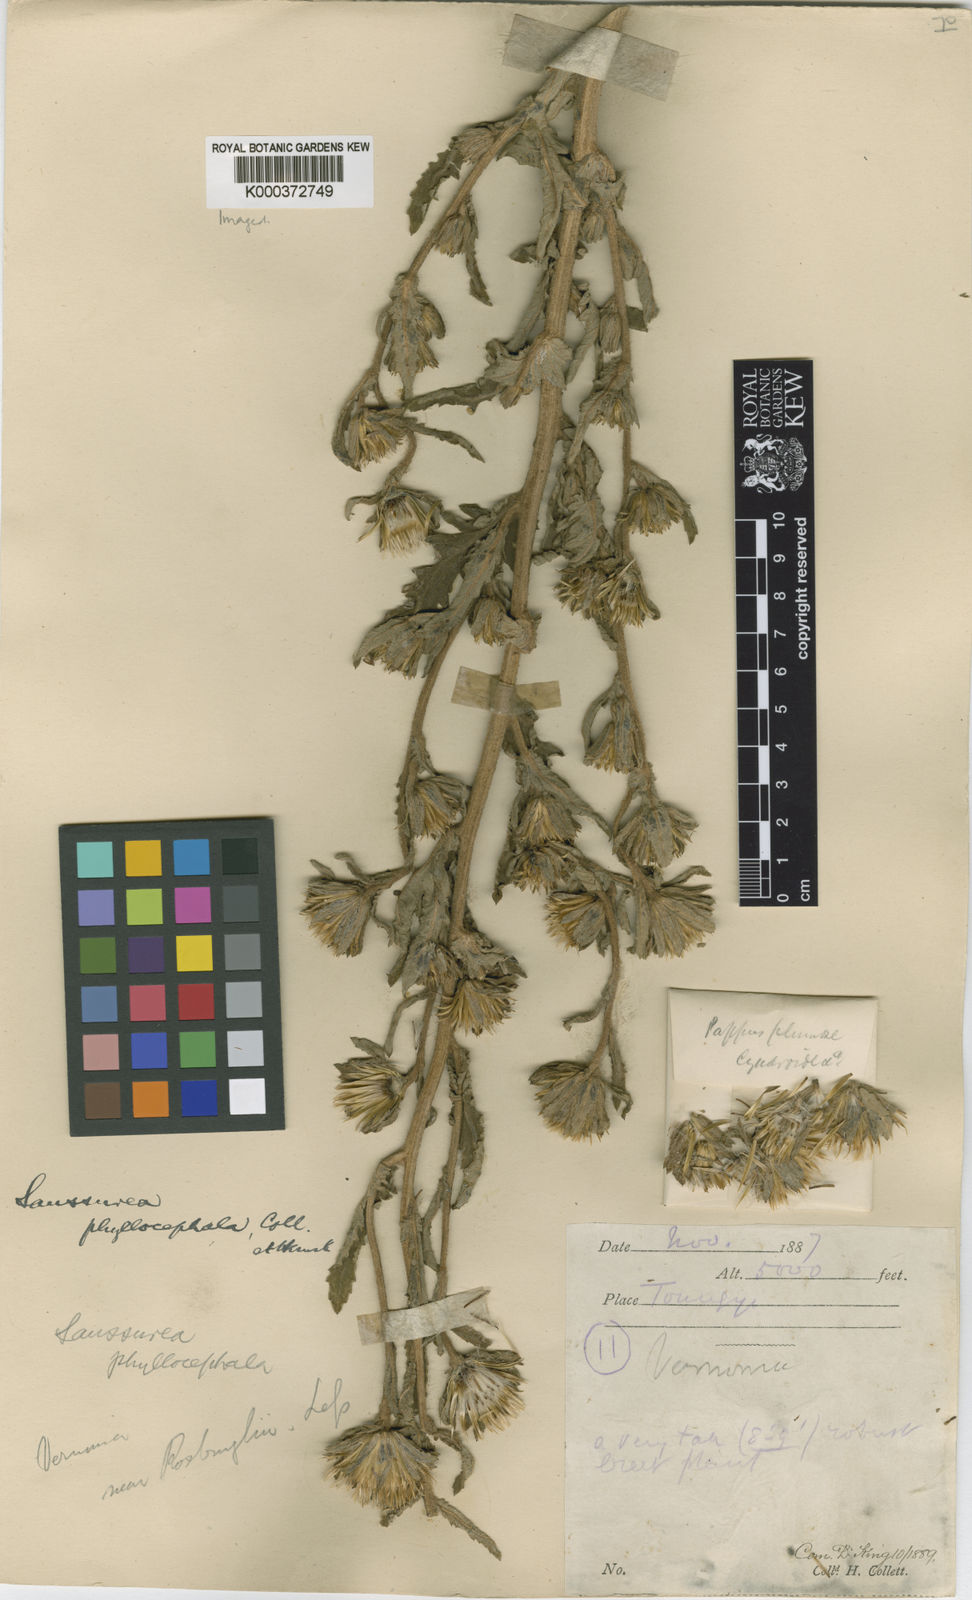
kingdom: Plantae
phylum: Tracheophyta
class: Magnoliopsida
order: Asterales
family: Asteraceae
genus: Jurinea
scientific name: Jurinea peguensis
